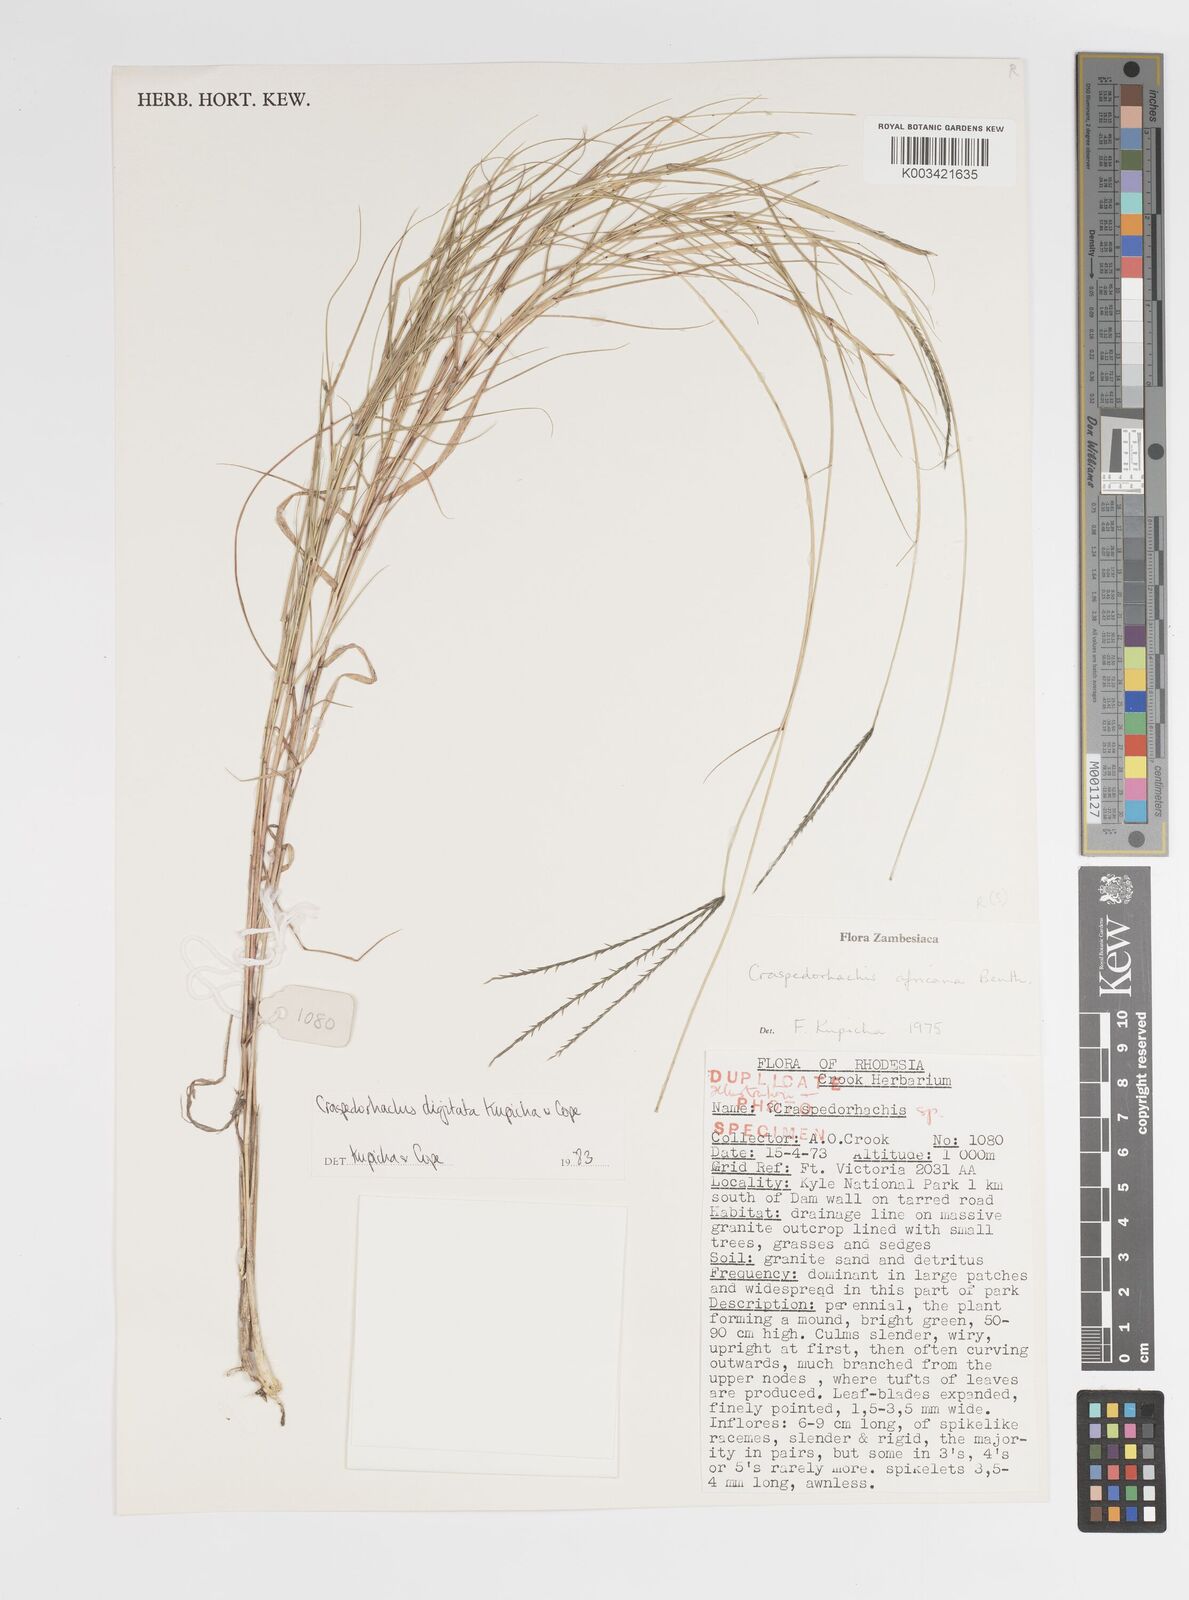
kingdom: Plantae
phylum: Tracheophyta
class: Liliopsida
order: Poales
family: Poaceae
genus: Craspedorhachis
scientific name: Craspedorhachis digitata
